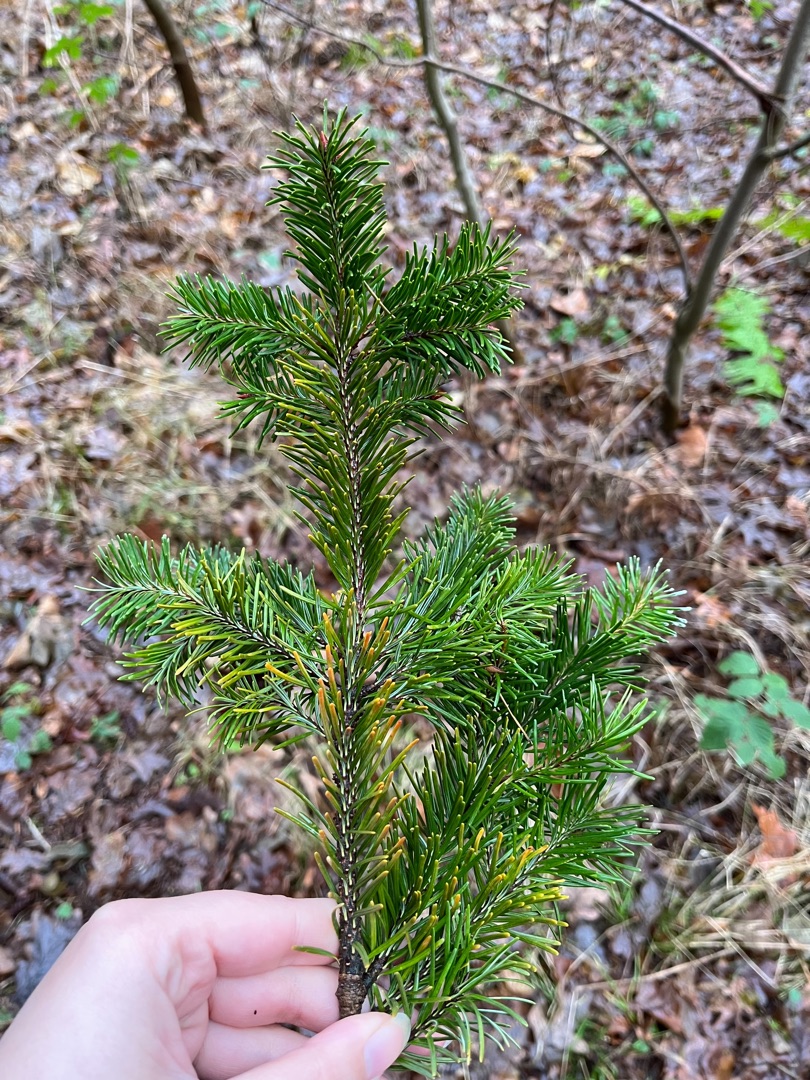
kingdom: Plantae
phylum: Tracheophyta
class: Pinopsida
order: Pinales
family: Pinaceae
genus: Pseudotsuga
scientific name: Pseudotsuga menziesii
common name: Douglasgran
